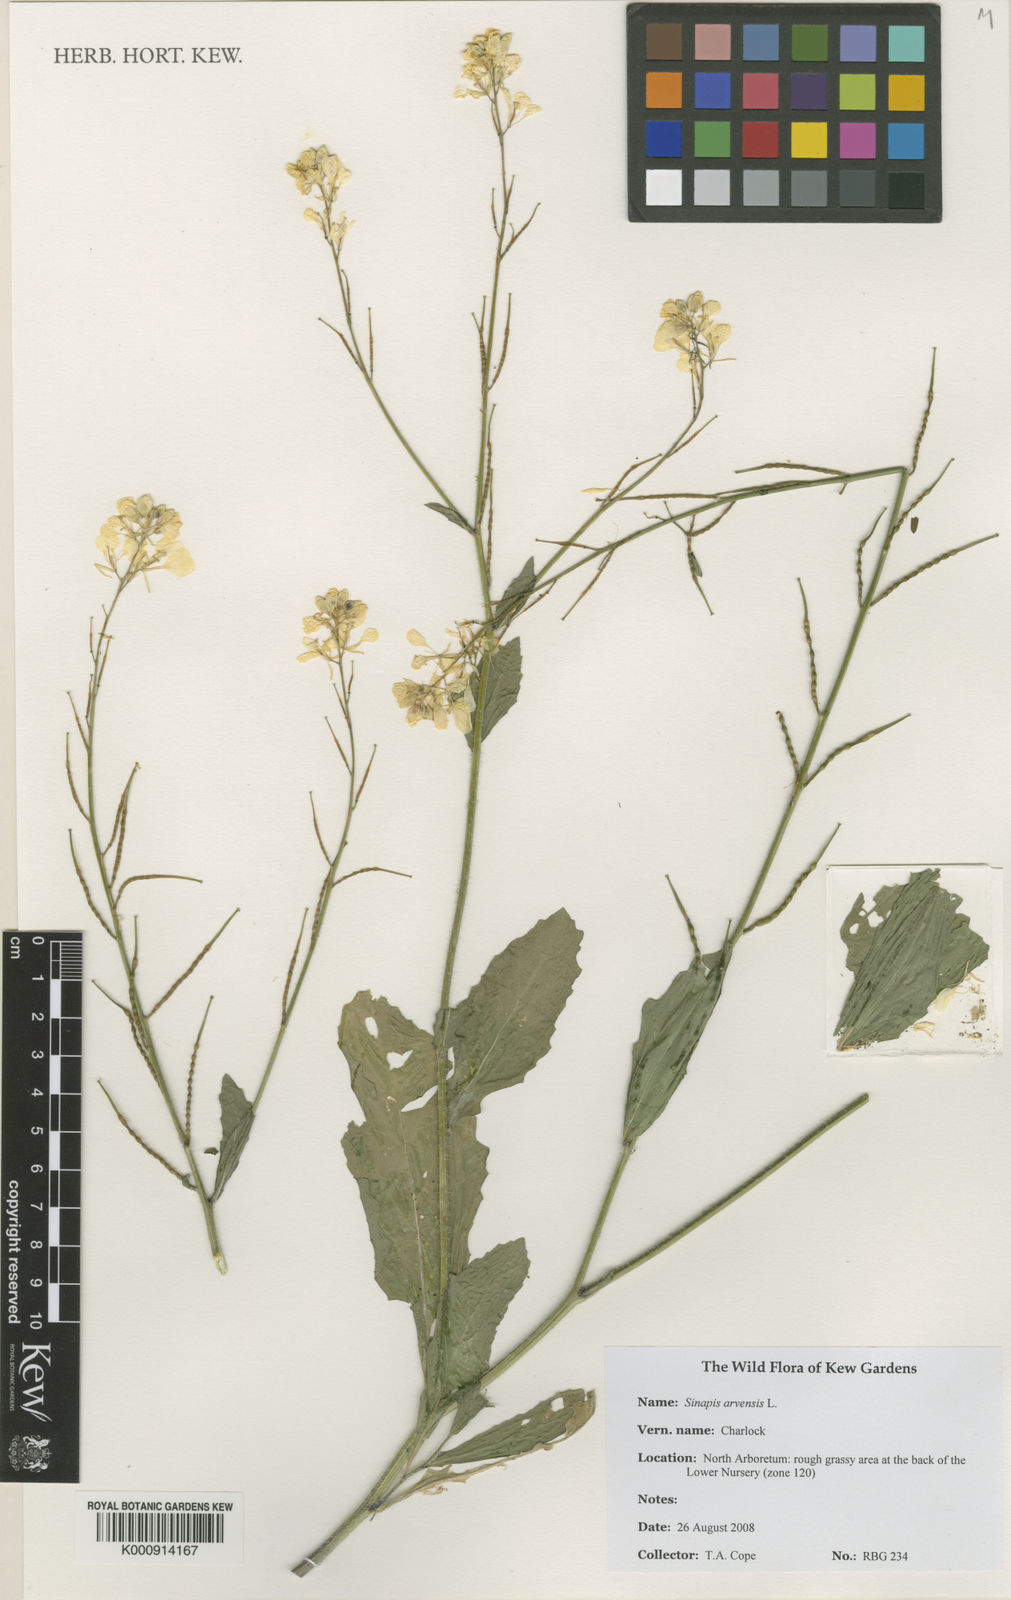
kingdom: Plantae
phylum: Tracheophyta
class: Magnoliopsida
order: Brassicales
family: Brassicaceae
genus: Sinapis
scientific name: Sinapis arvensis
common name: Charlock
